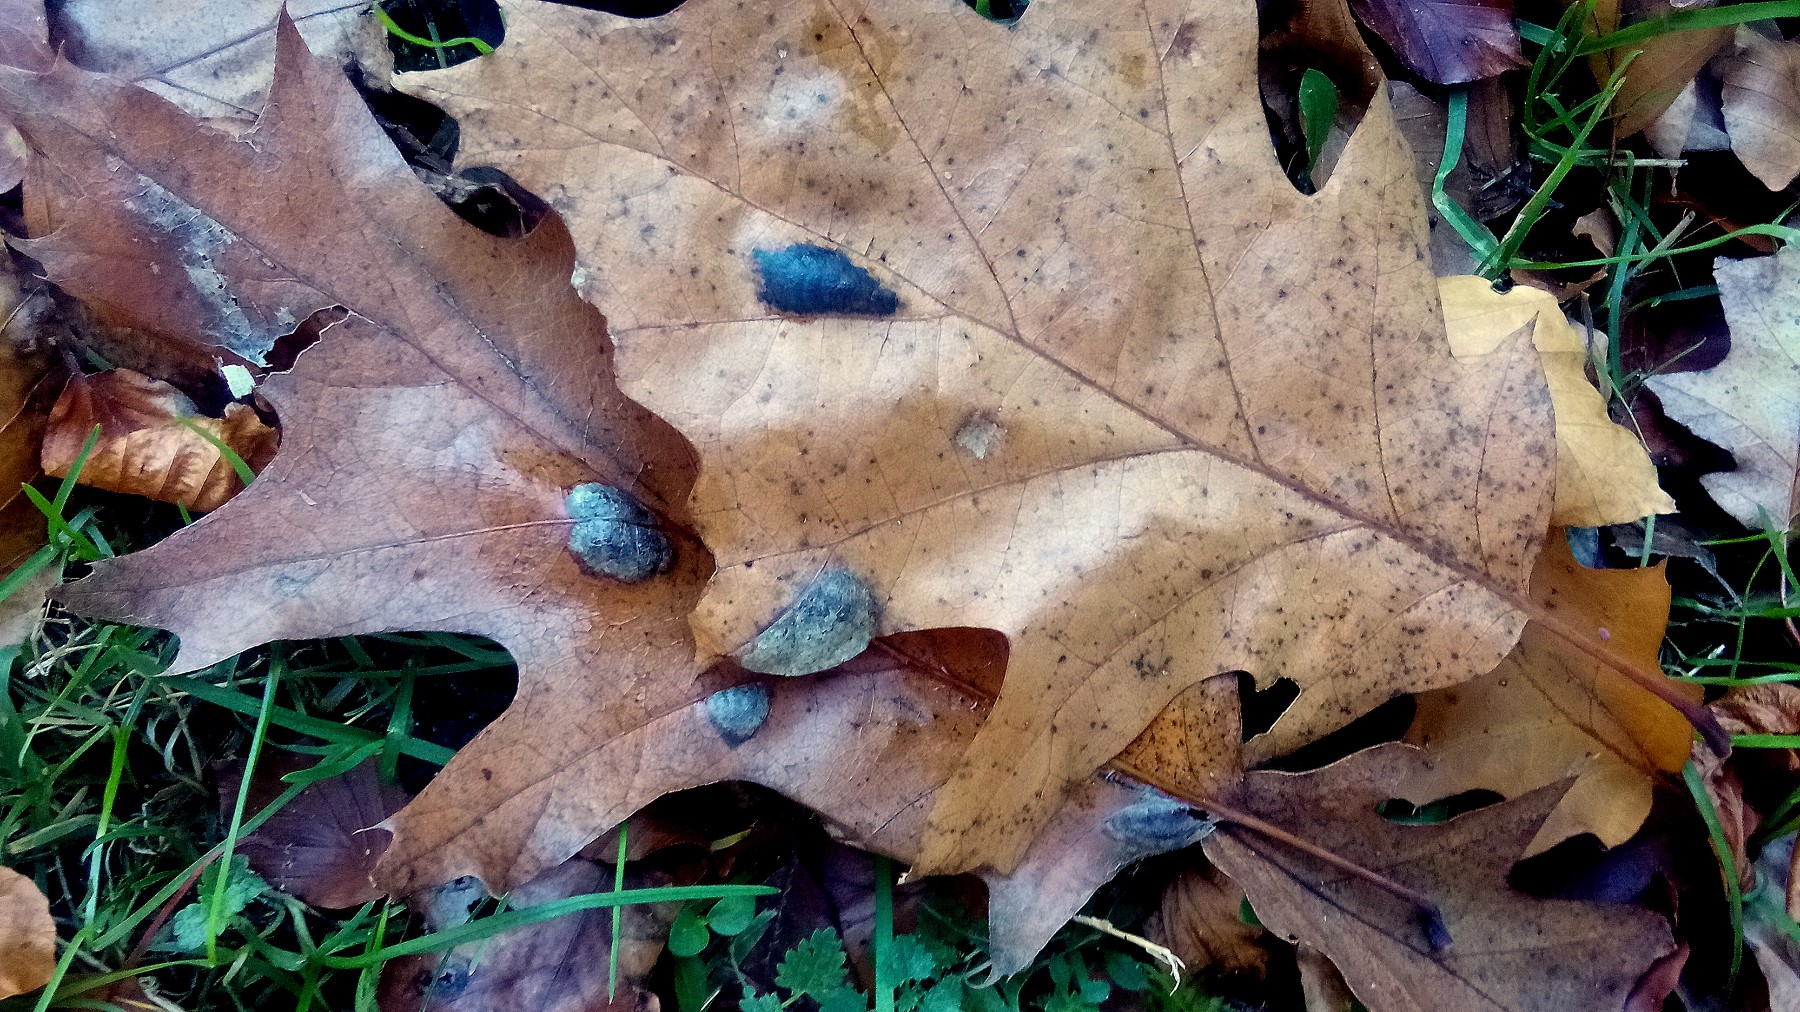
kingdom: Fungi
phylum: Ascomycota
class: Taphrinomycetes
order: Taphrinales
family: Taphrinaceae
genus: Taphrina
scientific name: Taphrina caerulescens
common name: Oak leaf blister
